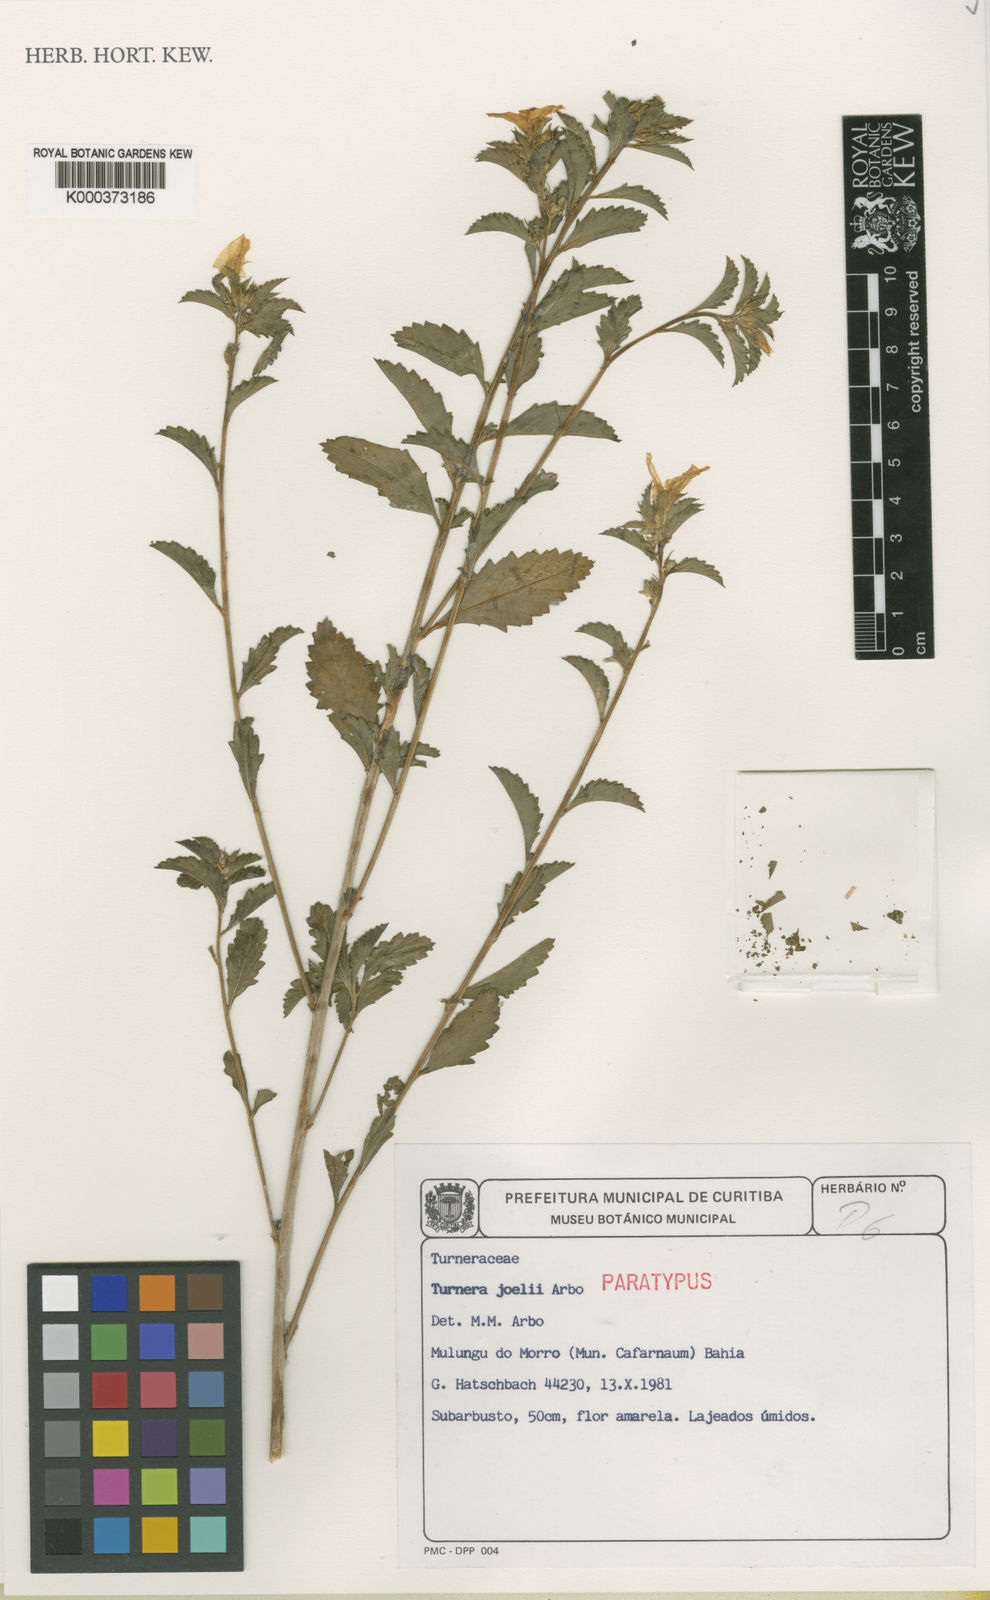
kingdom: Plantae
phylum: Tracheophyta
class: Magnoliopsida
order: Malpighiales
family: Turneraceae
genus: Turnera
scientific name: Turnera joelii
